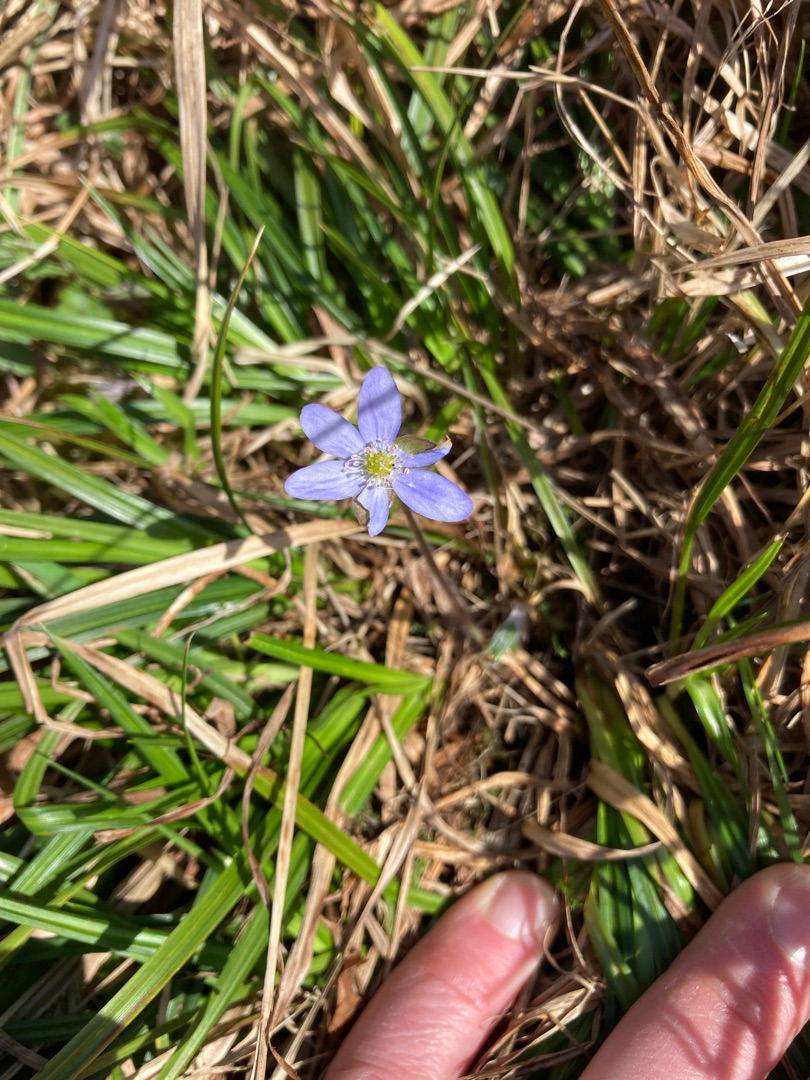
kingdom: Plantae
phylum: Tracheophyta
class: Magnoliopsida
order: Ranunculales
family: Ranunculaceae
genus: Hepatica
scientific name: Hepatica nobilis
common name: Blå anemone
